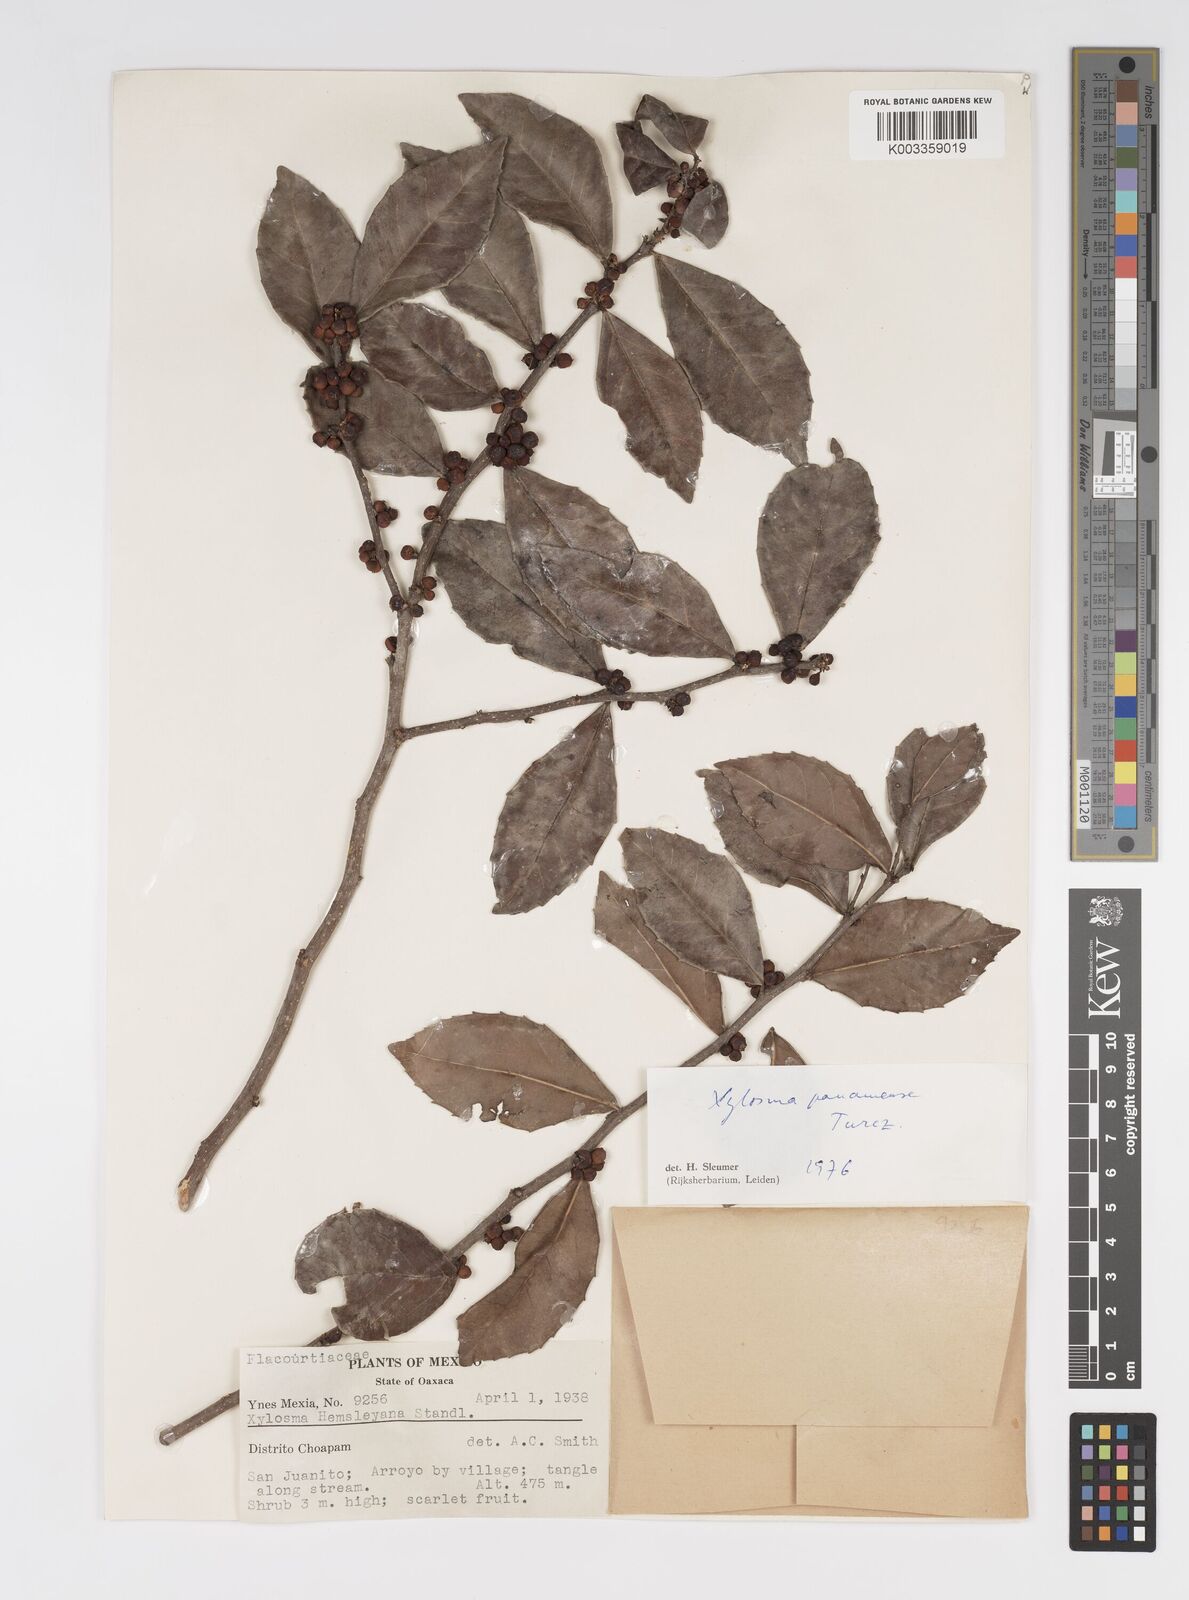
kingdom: Plantae
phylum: Tracheophyta
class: Magnoliopsida
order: Malpighiales
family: Salicaceae
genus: Xylosma
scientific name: Xylosma panamensis
